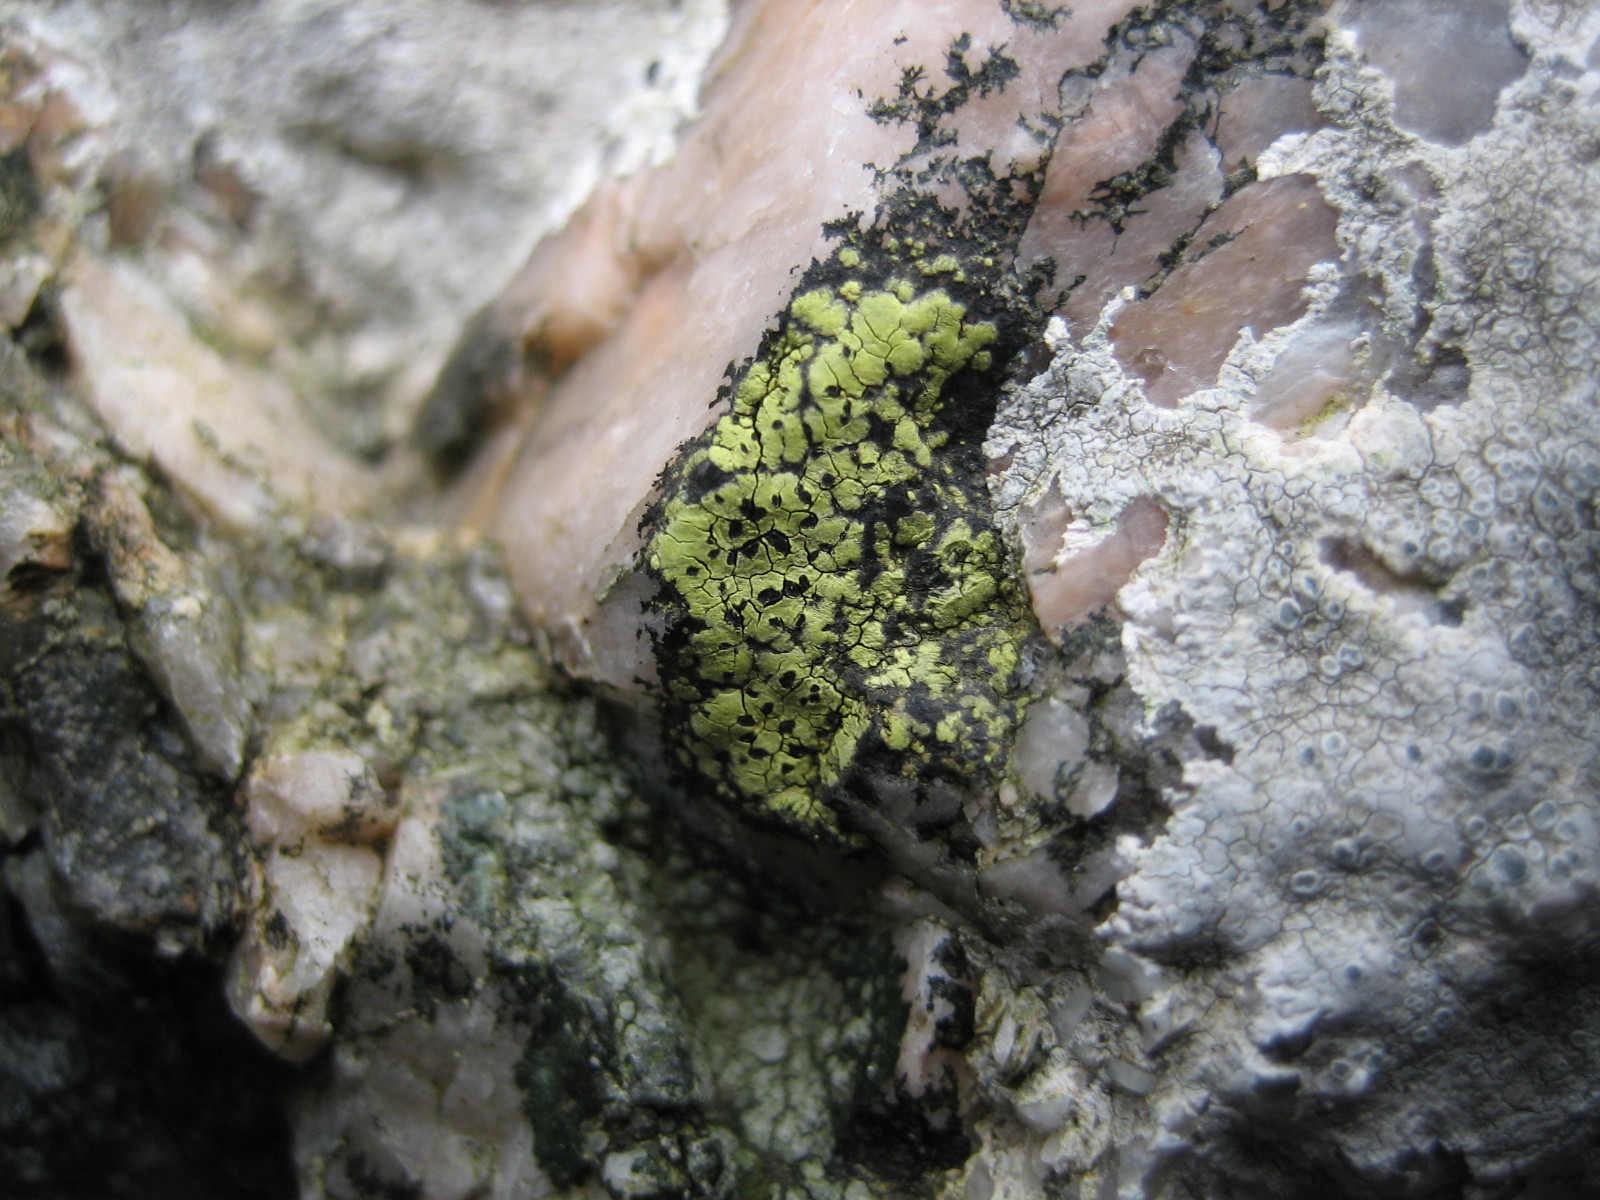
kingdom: Fungi
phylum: Ascomycota
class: Lecanoromycetes
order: Rhizocarpales
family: Rhizocarpaceae
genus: Rhizocarpon
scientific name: Rhizocarpon geographicum
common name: gulgrøn landkortlav
